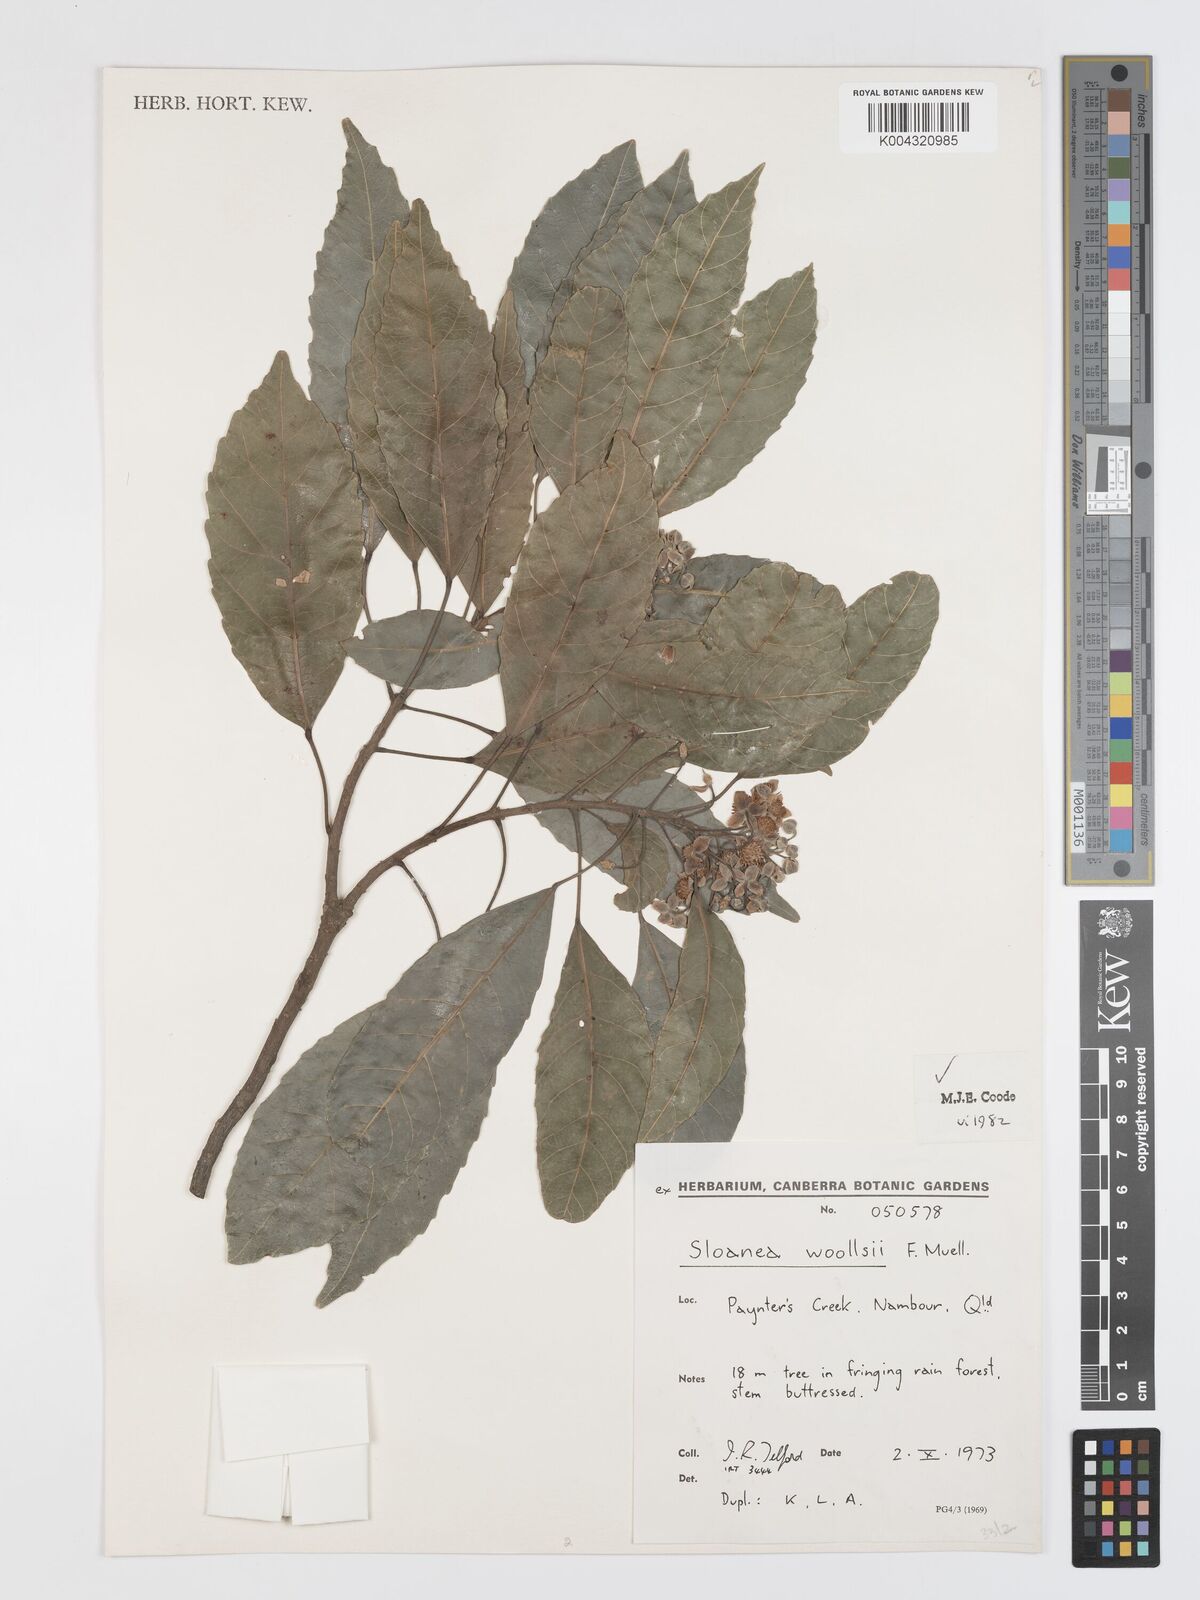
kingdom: Plantae
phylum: Tracheophyta
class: Magnoliopsida
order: Oxalidales
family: Elaeocarpaceae
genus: Sloanea
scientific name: Sloanea woollsii
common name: Yellow carabeen
